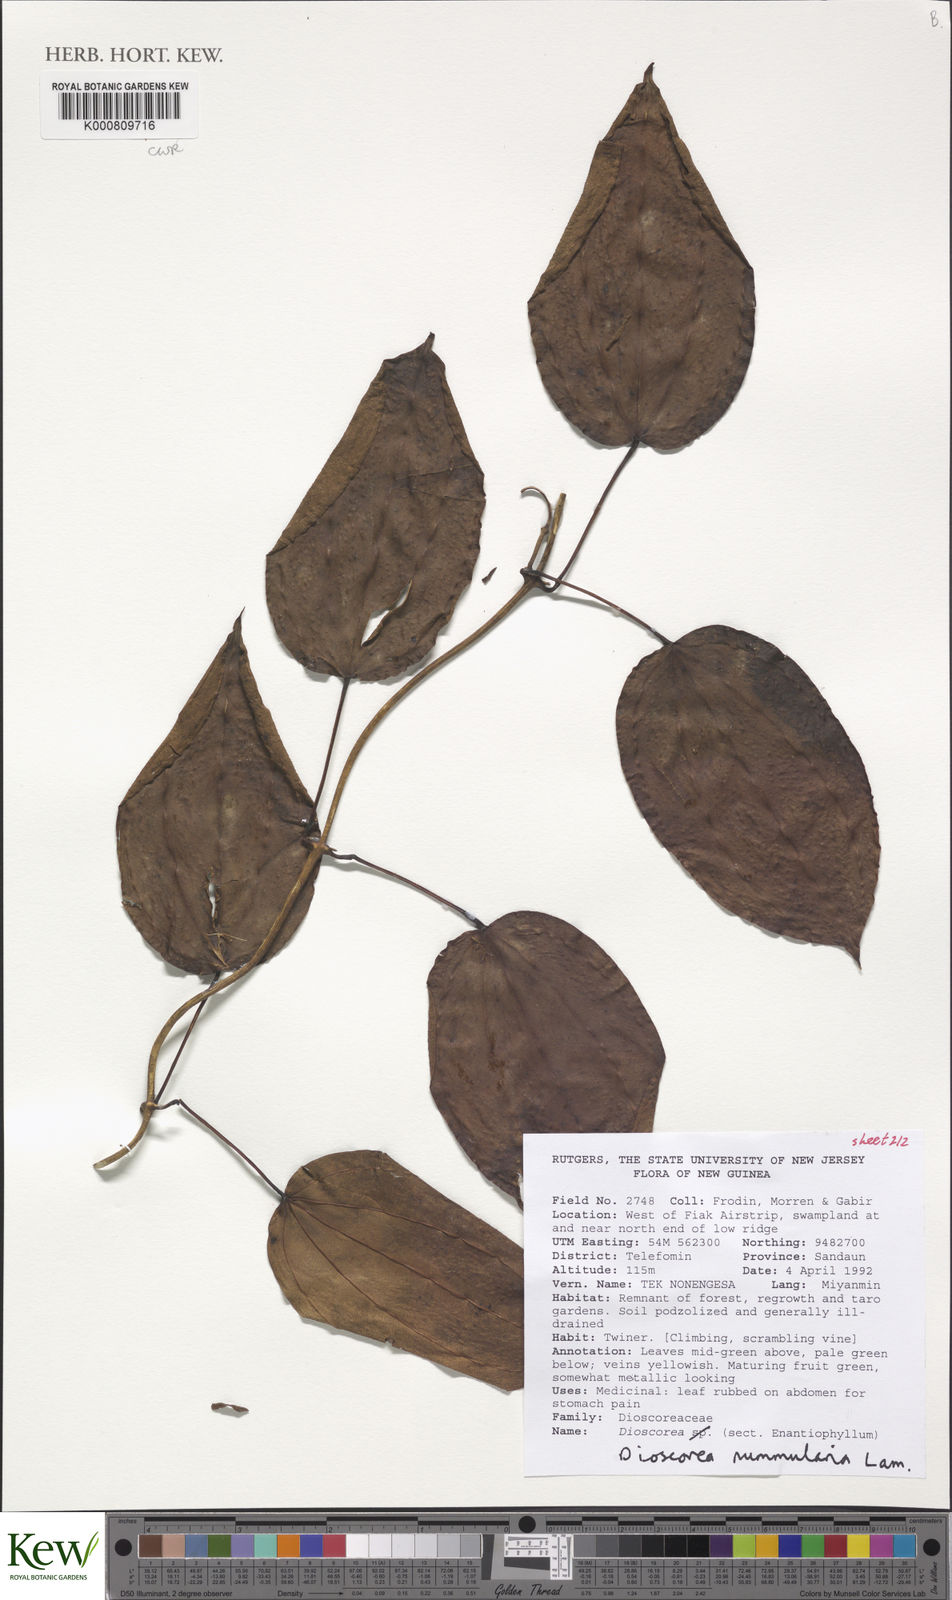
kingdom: Plantae
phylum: Tracheophyta
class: Liliopsida
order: Dioscoreales
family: Dioscoreaceae
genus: Dioscorea
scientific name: Dioscorea nummularia
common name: Pacific yam
